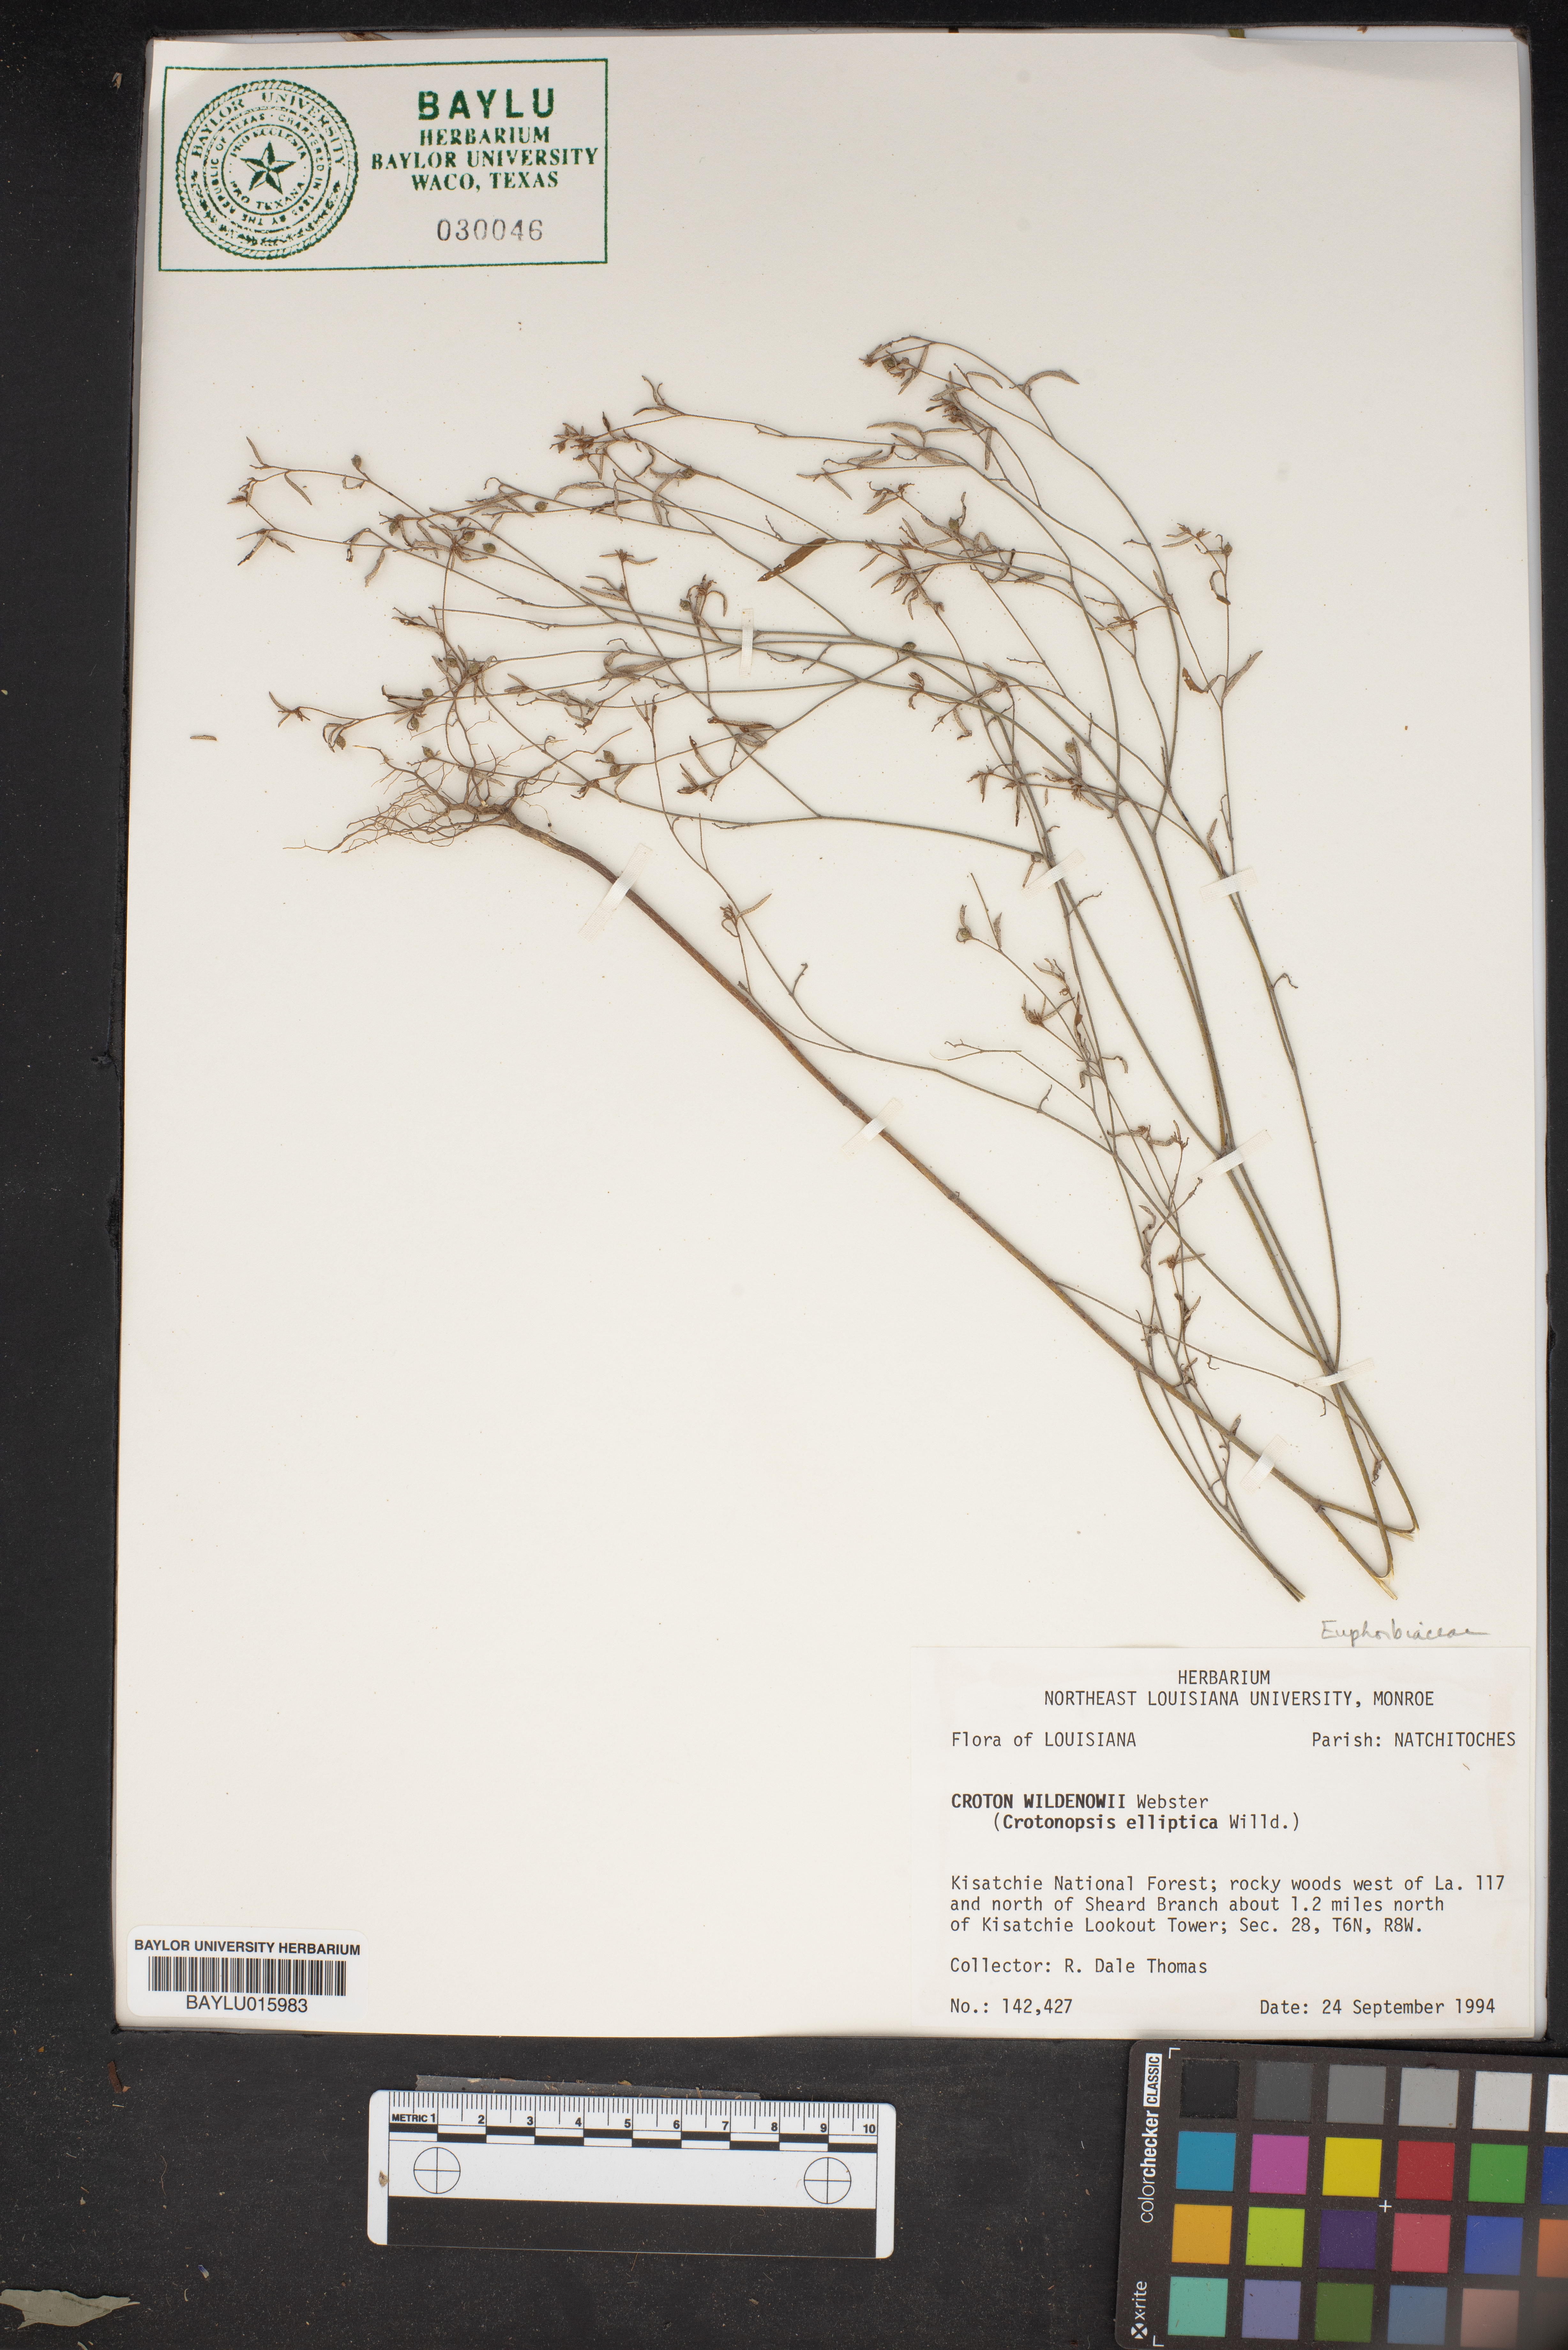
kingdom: Plantae
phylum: Tracheophyta
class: Magnoliopsida
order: Malpighiales
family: Euphorbiaceae
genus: Croton
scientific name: Croton michauxii
